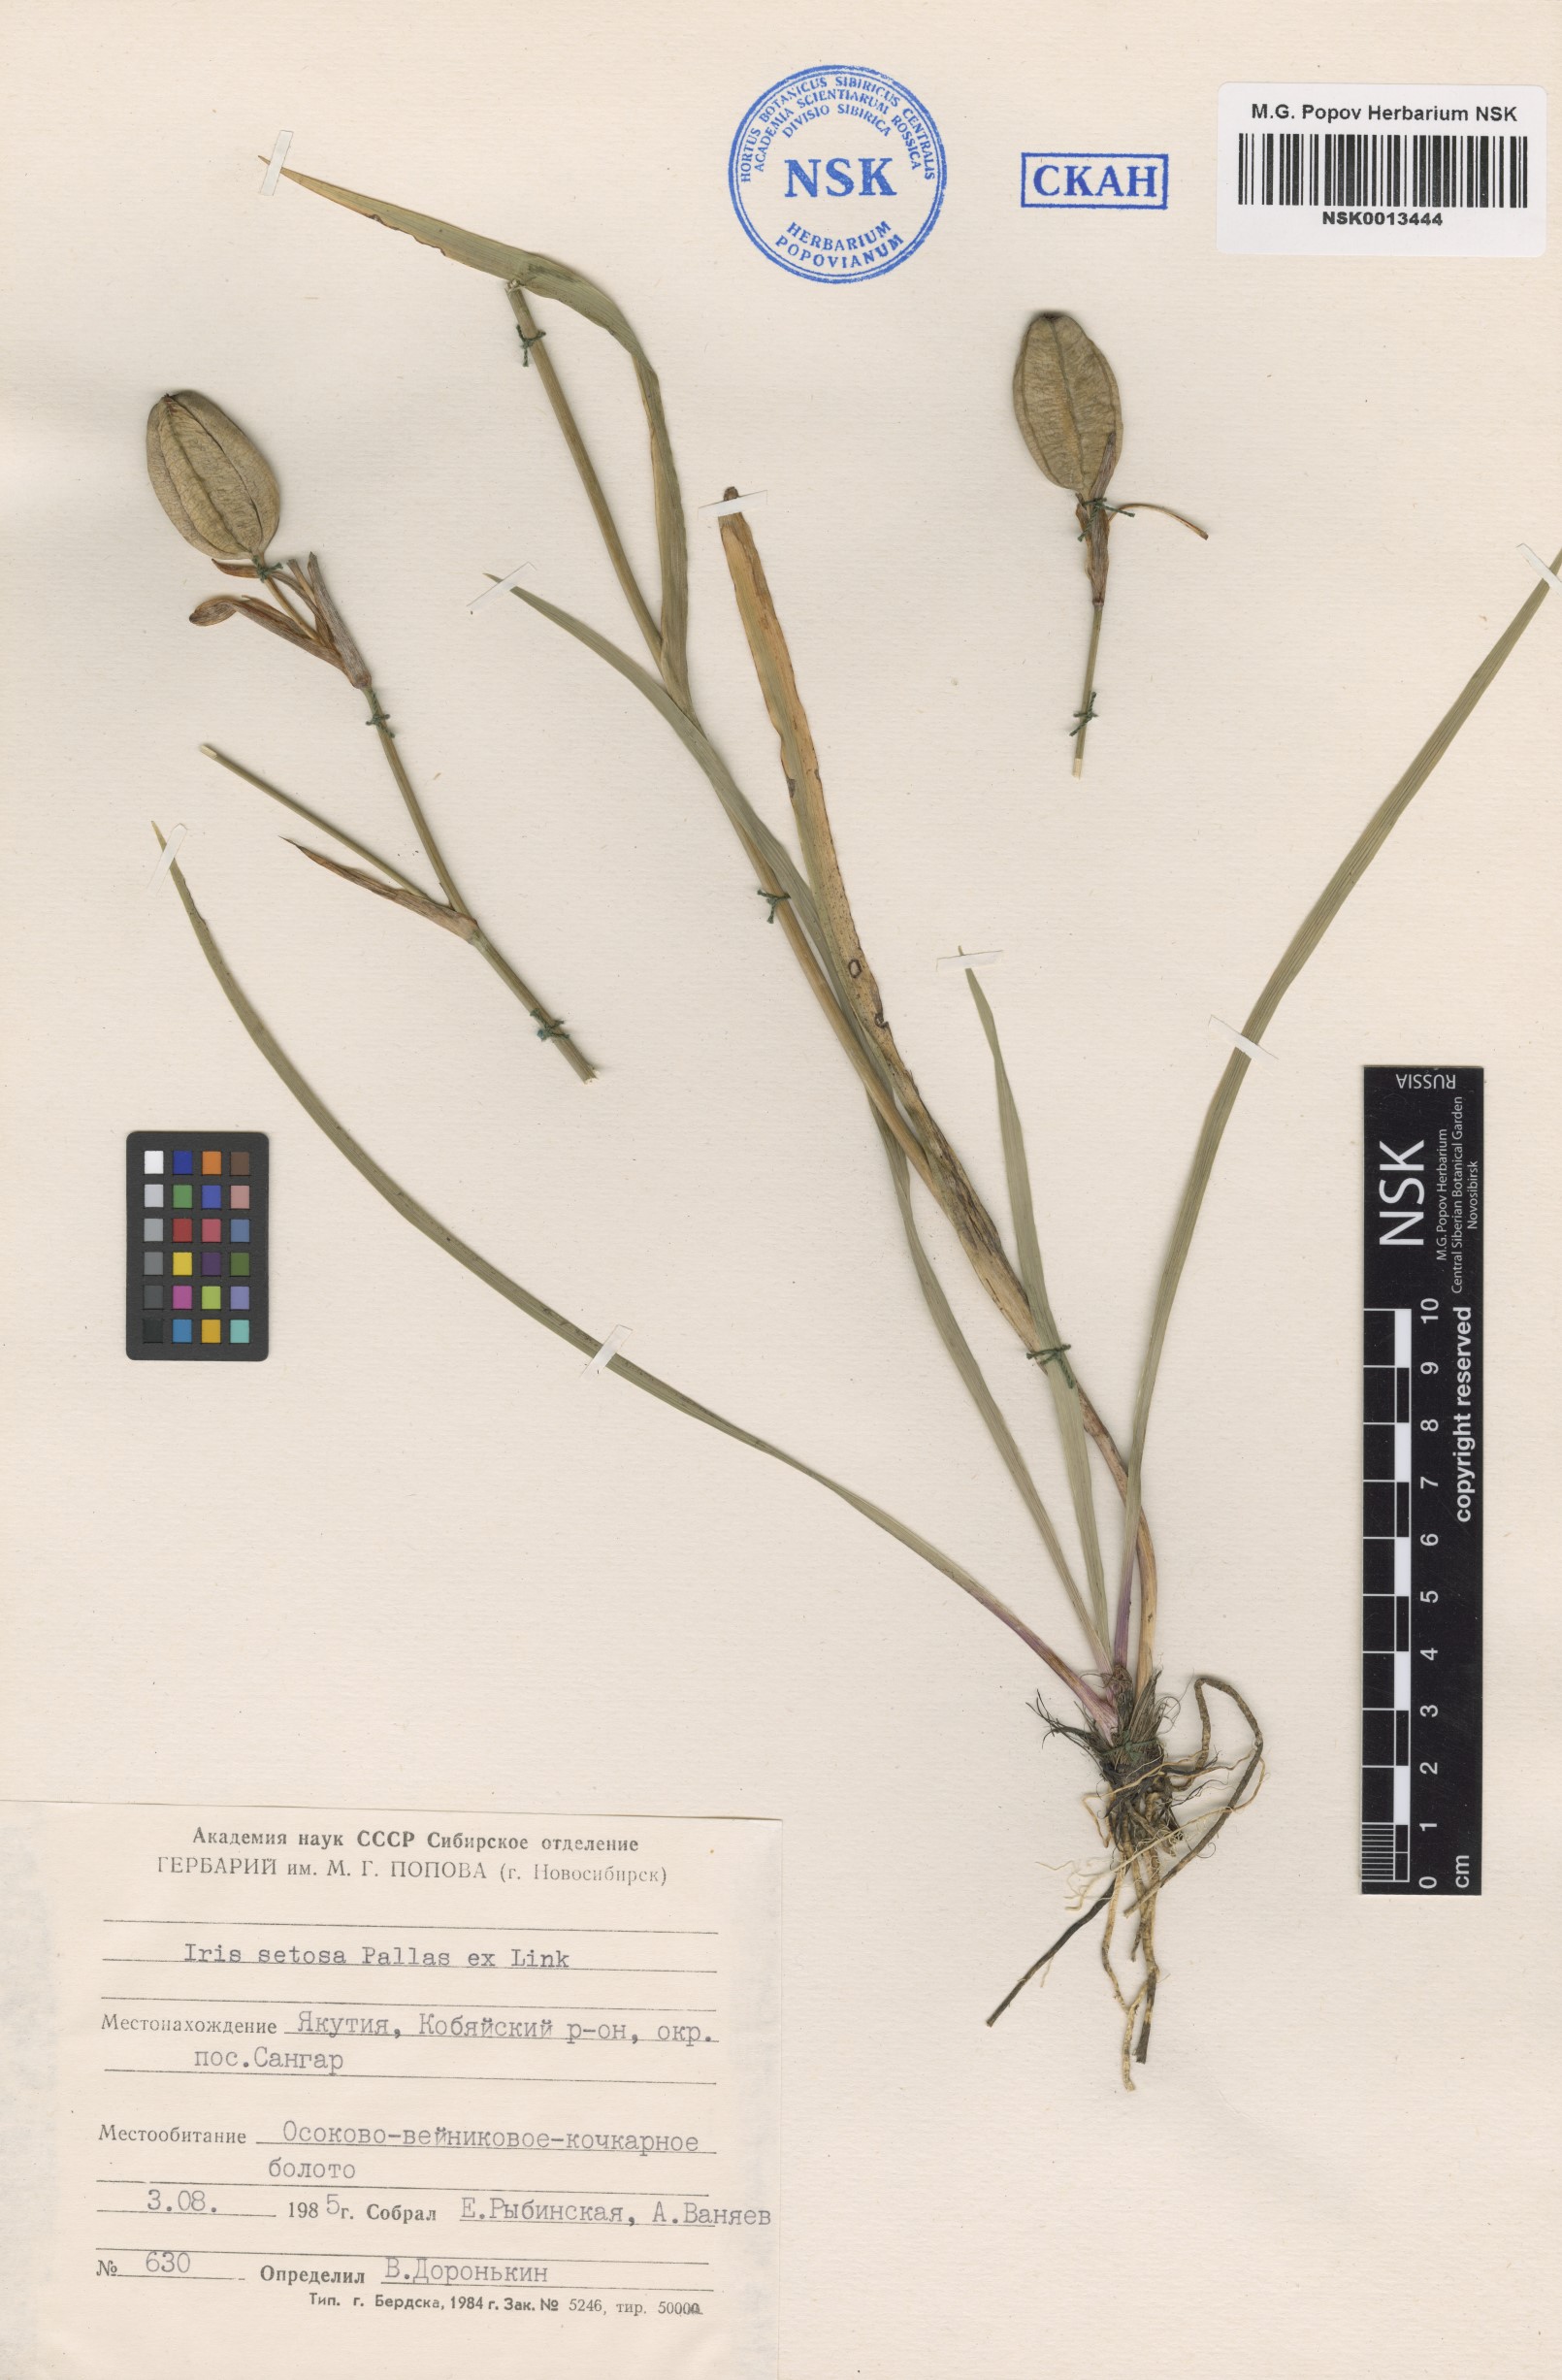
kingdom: Plantae
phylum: Tracheophyta
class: Liliopsida
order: Asparagales
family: Iridaceae
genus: Iris
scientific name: Iris setosa
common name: Arctic blue flag
